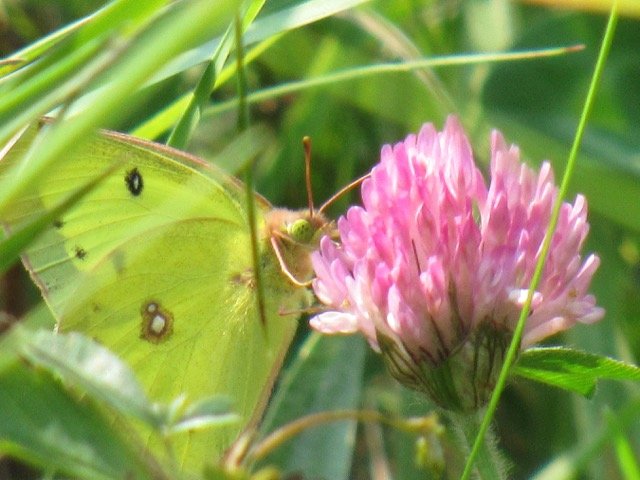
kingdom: Animalia
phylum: Arthropoda
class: Insecta
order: Lepidoptera
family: Pieridae
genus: Colias
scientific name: Colias philodice
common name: Clouded Sulphur
